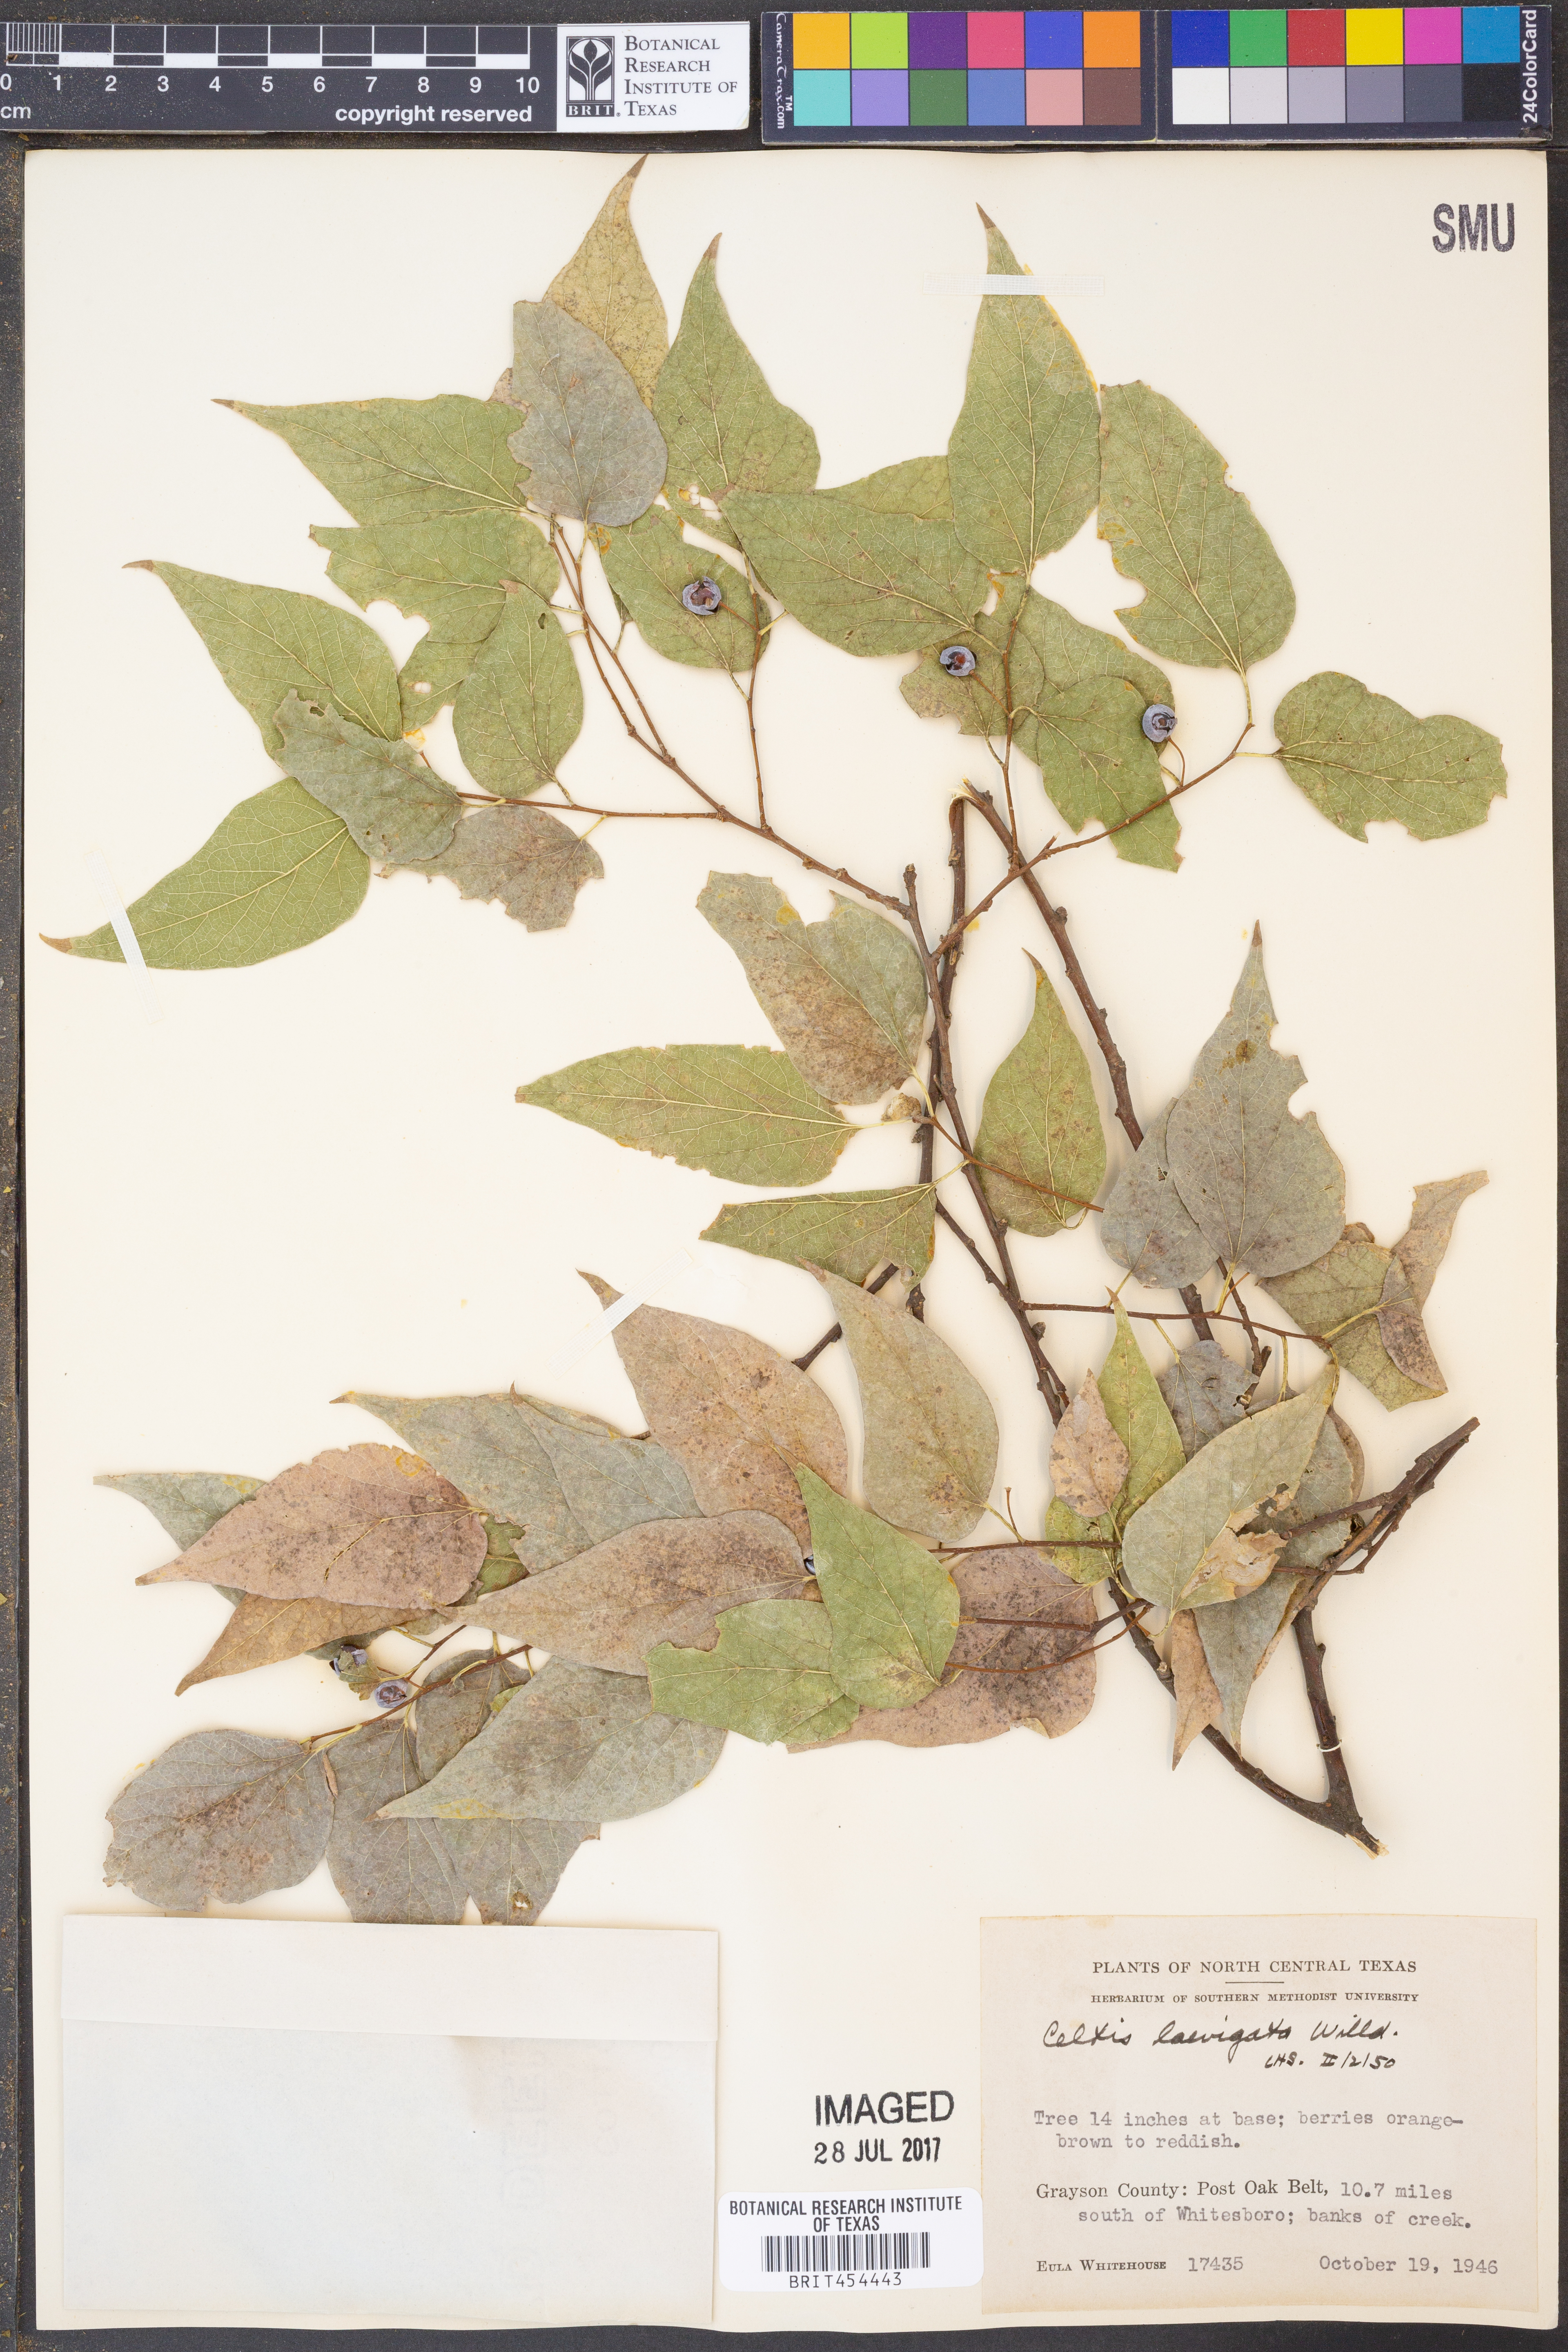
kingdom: Plantae
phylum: Tracheophyta
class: Magnoliopsida
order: Rosales
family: Cannabaceae
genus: Celtis
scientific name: Celtis laevigata
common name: Sugarberry
